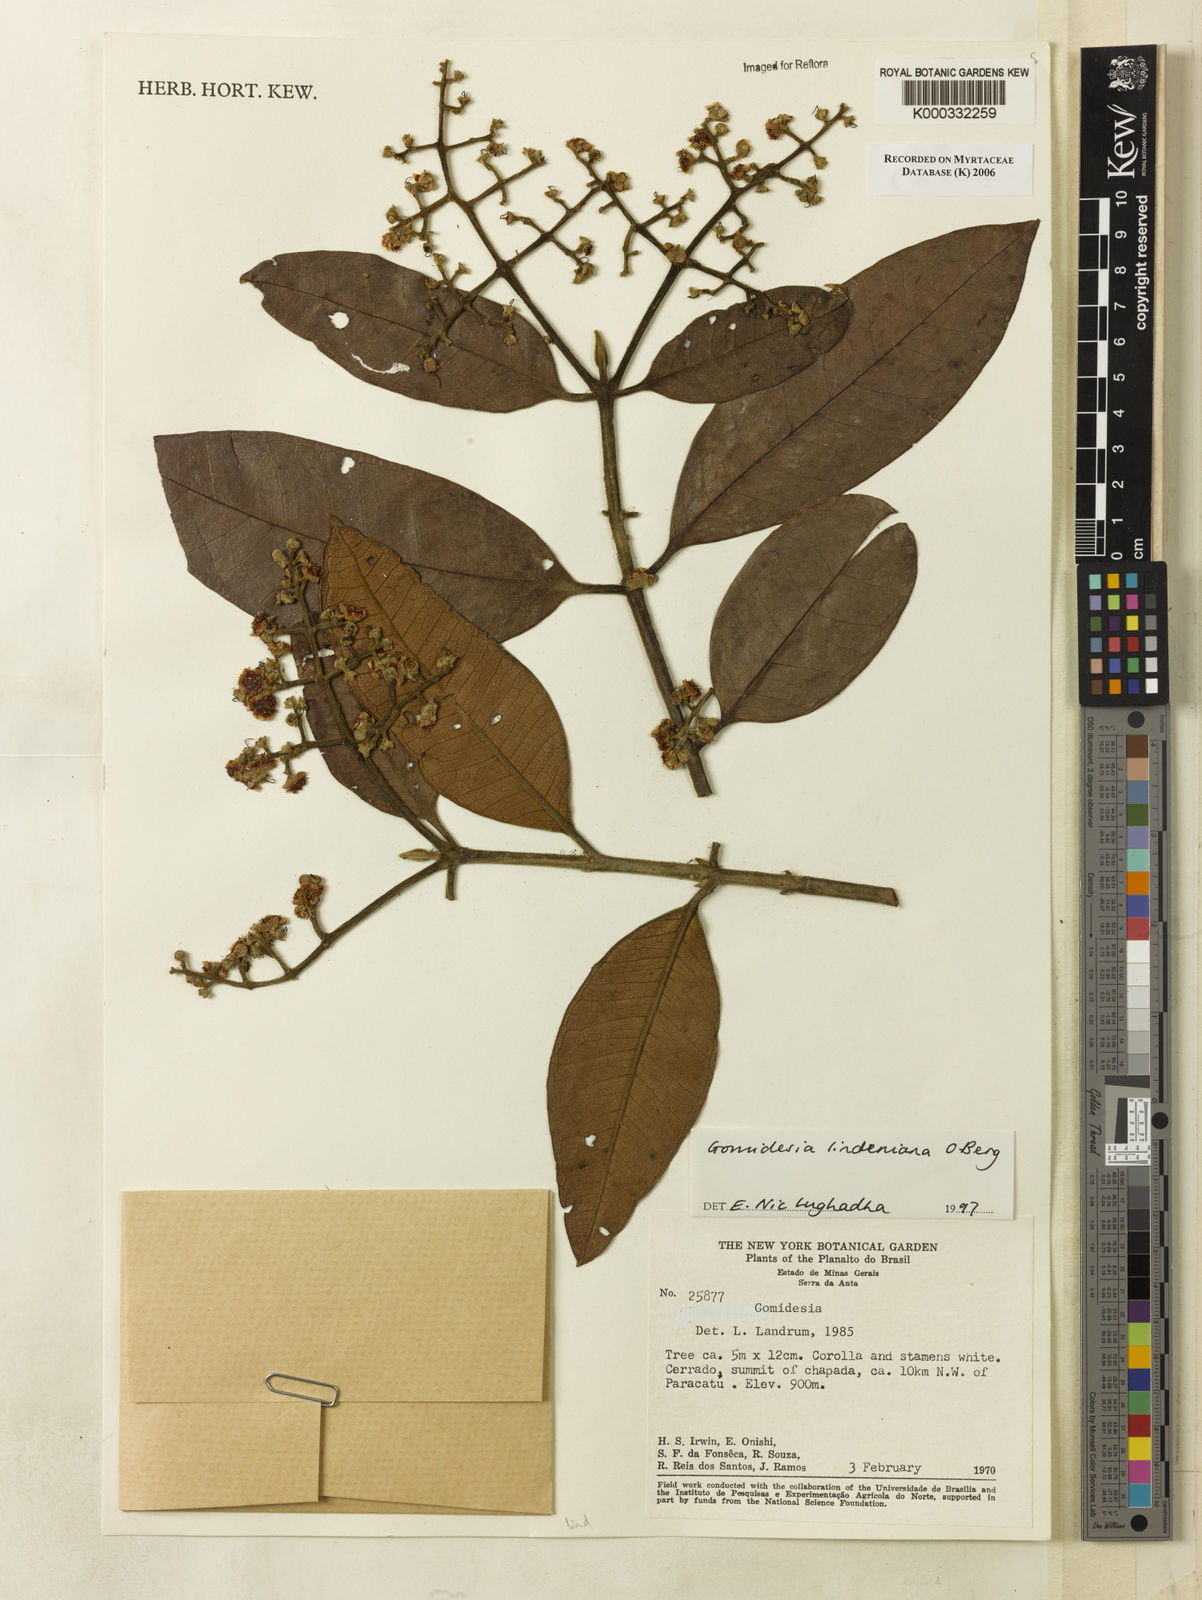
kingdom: Plantae
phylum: Tracheophyta
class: Magnoliopsida
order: Myrtales
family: Myrtaceae
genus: Myrcia
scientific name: Myrcia fenzliana
